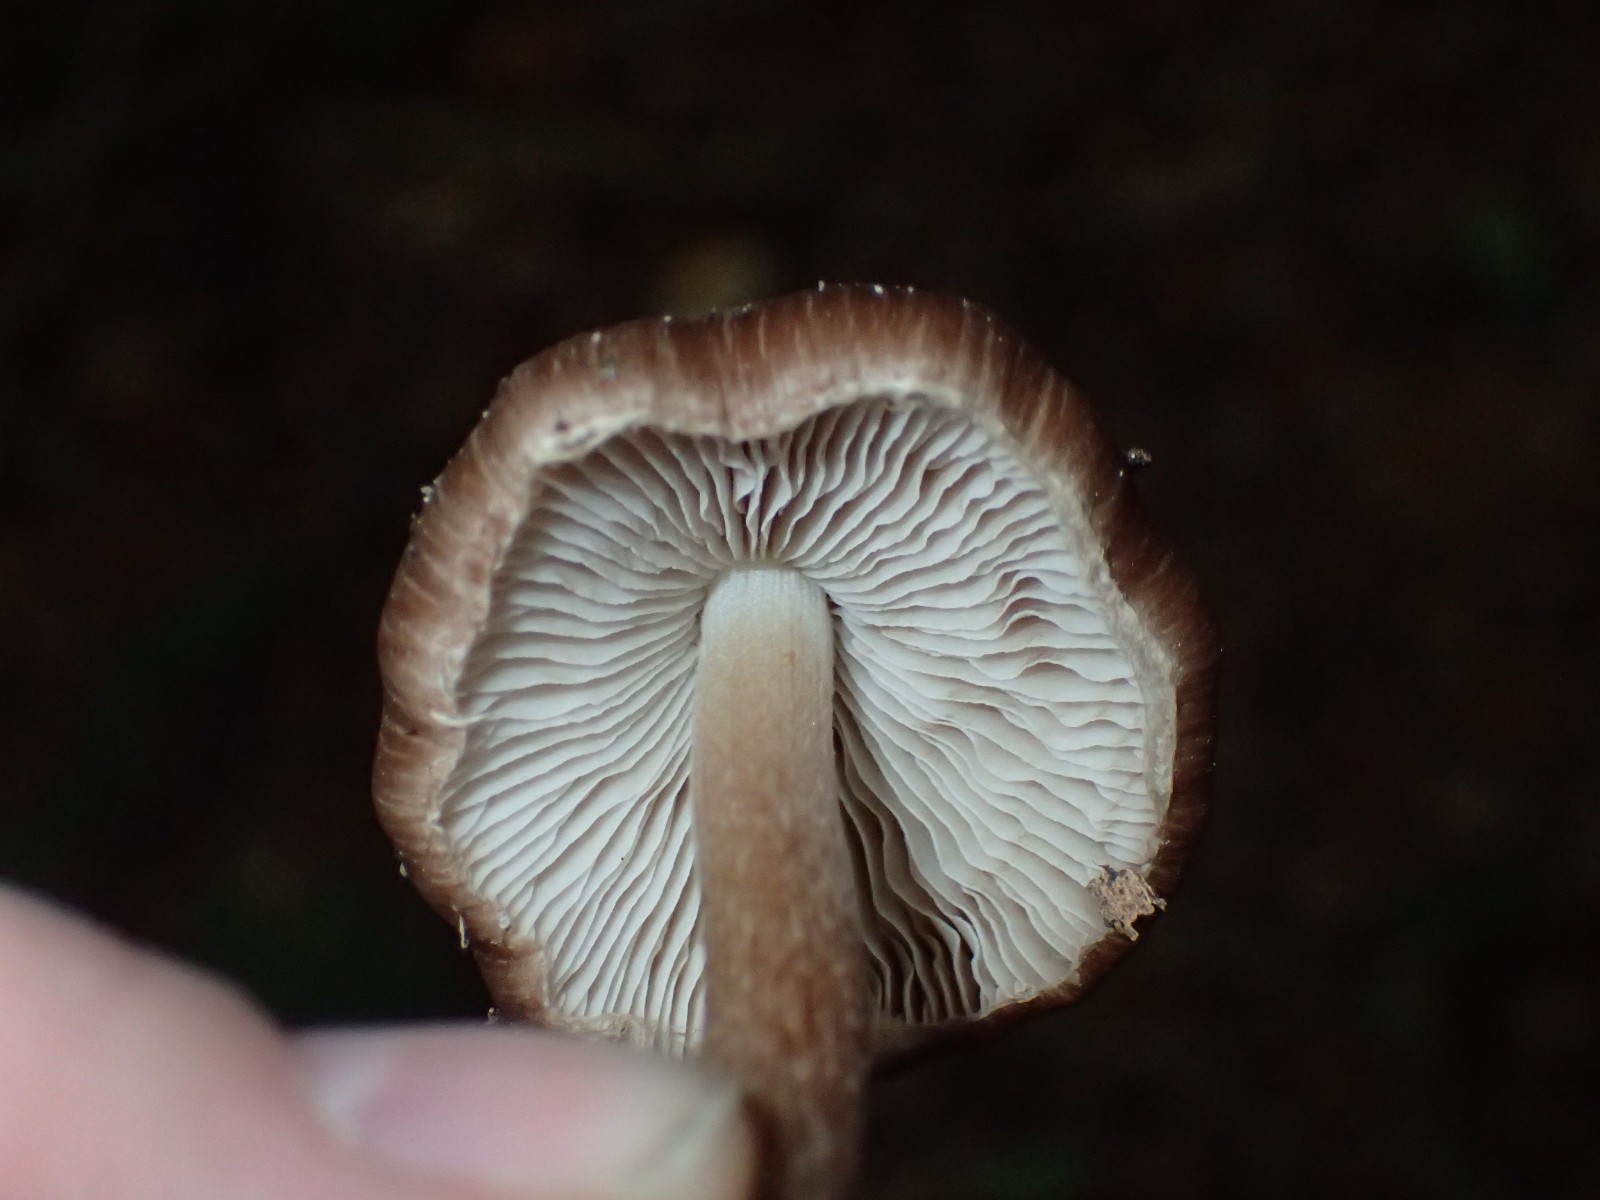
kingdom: Fungi
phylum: Basidiomycota
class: Agaricomycetes
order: Agaricales
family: Inocybaceae
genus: Inocybe
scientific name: Inocybe
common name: trævlhat
